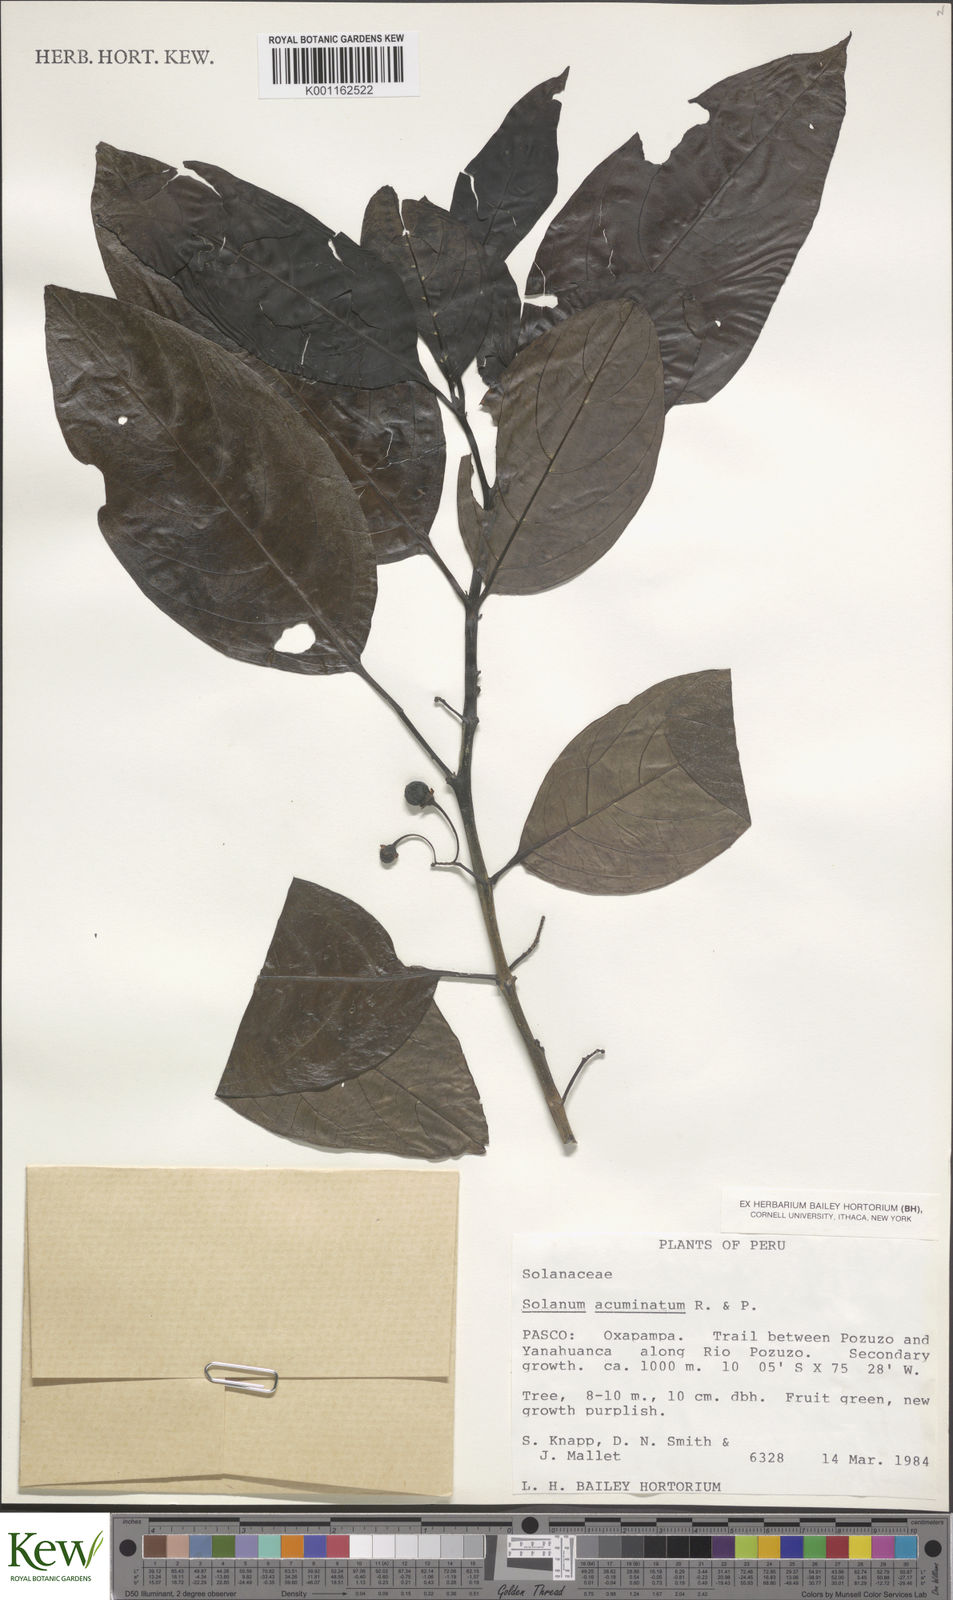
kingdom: Plantae
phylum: Tracheophyta
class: Magnoliopsida
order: Solanales
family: Solanaceae
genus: Solanum
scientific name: Solanum acuminatum
